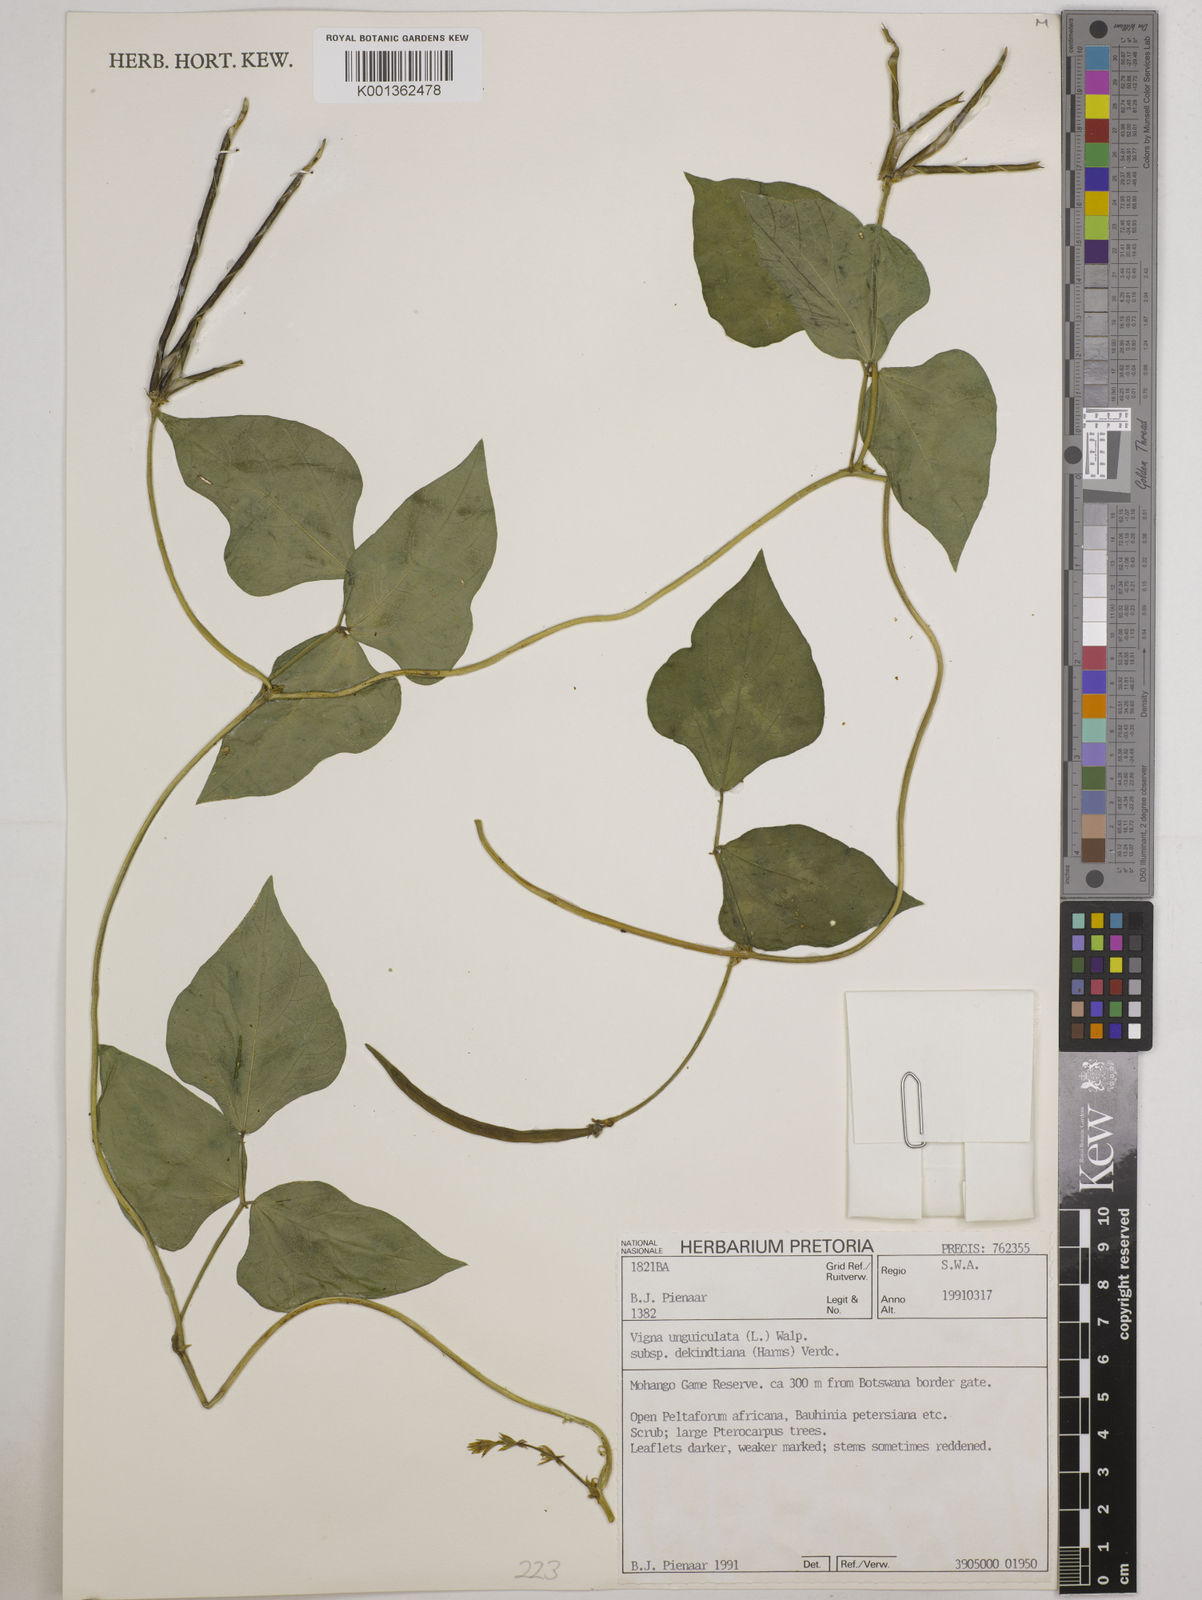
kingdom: Plantae
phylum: Tracheophyta
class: Magnoliopsida
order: Fabales
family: Fabaceae
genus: Vigna
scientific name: Vigna
